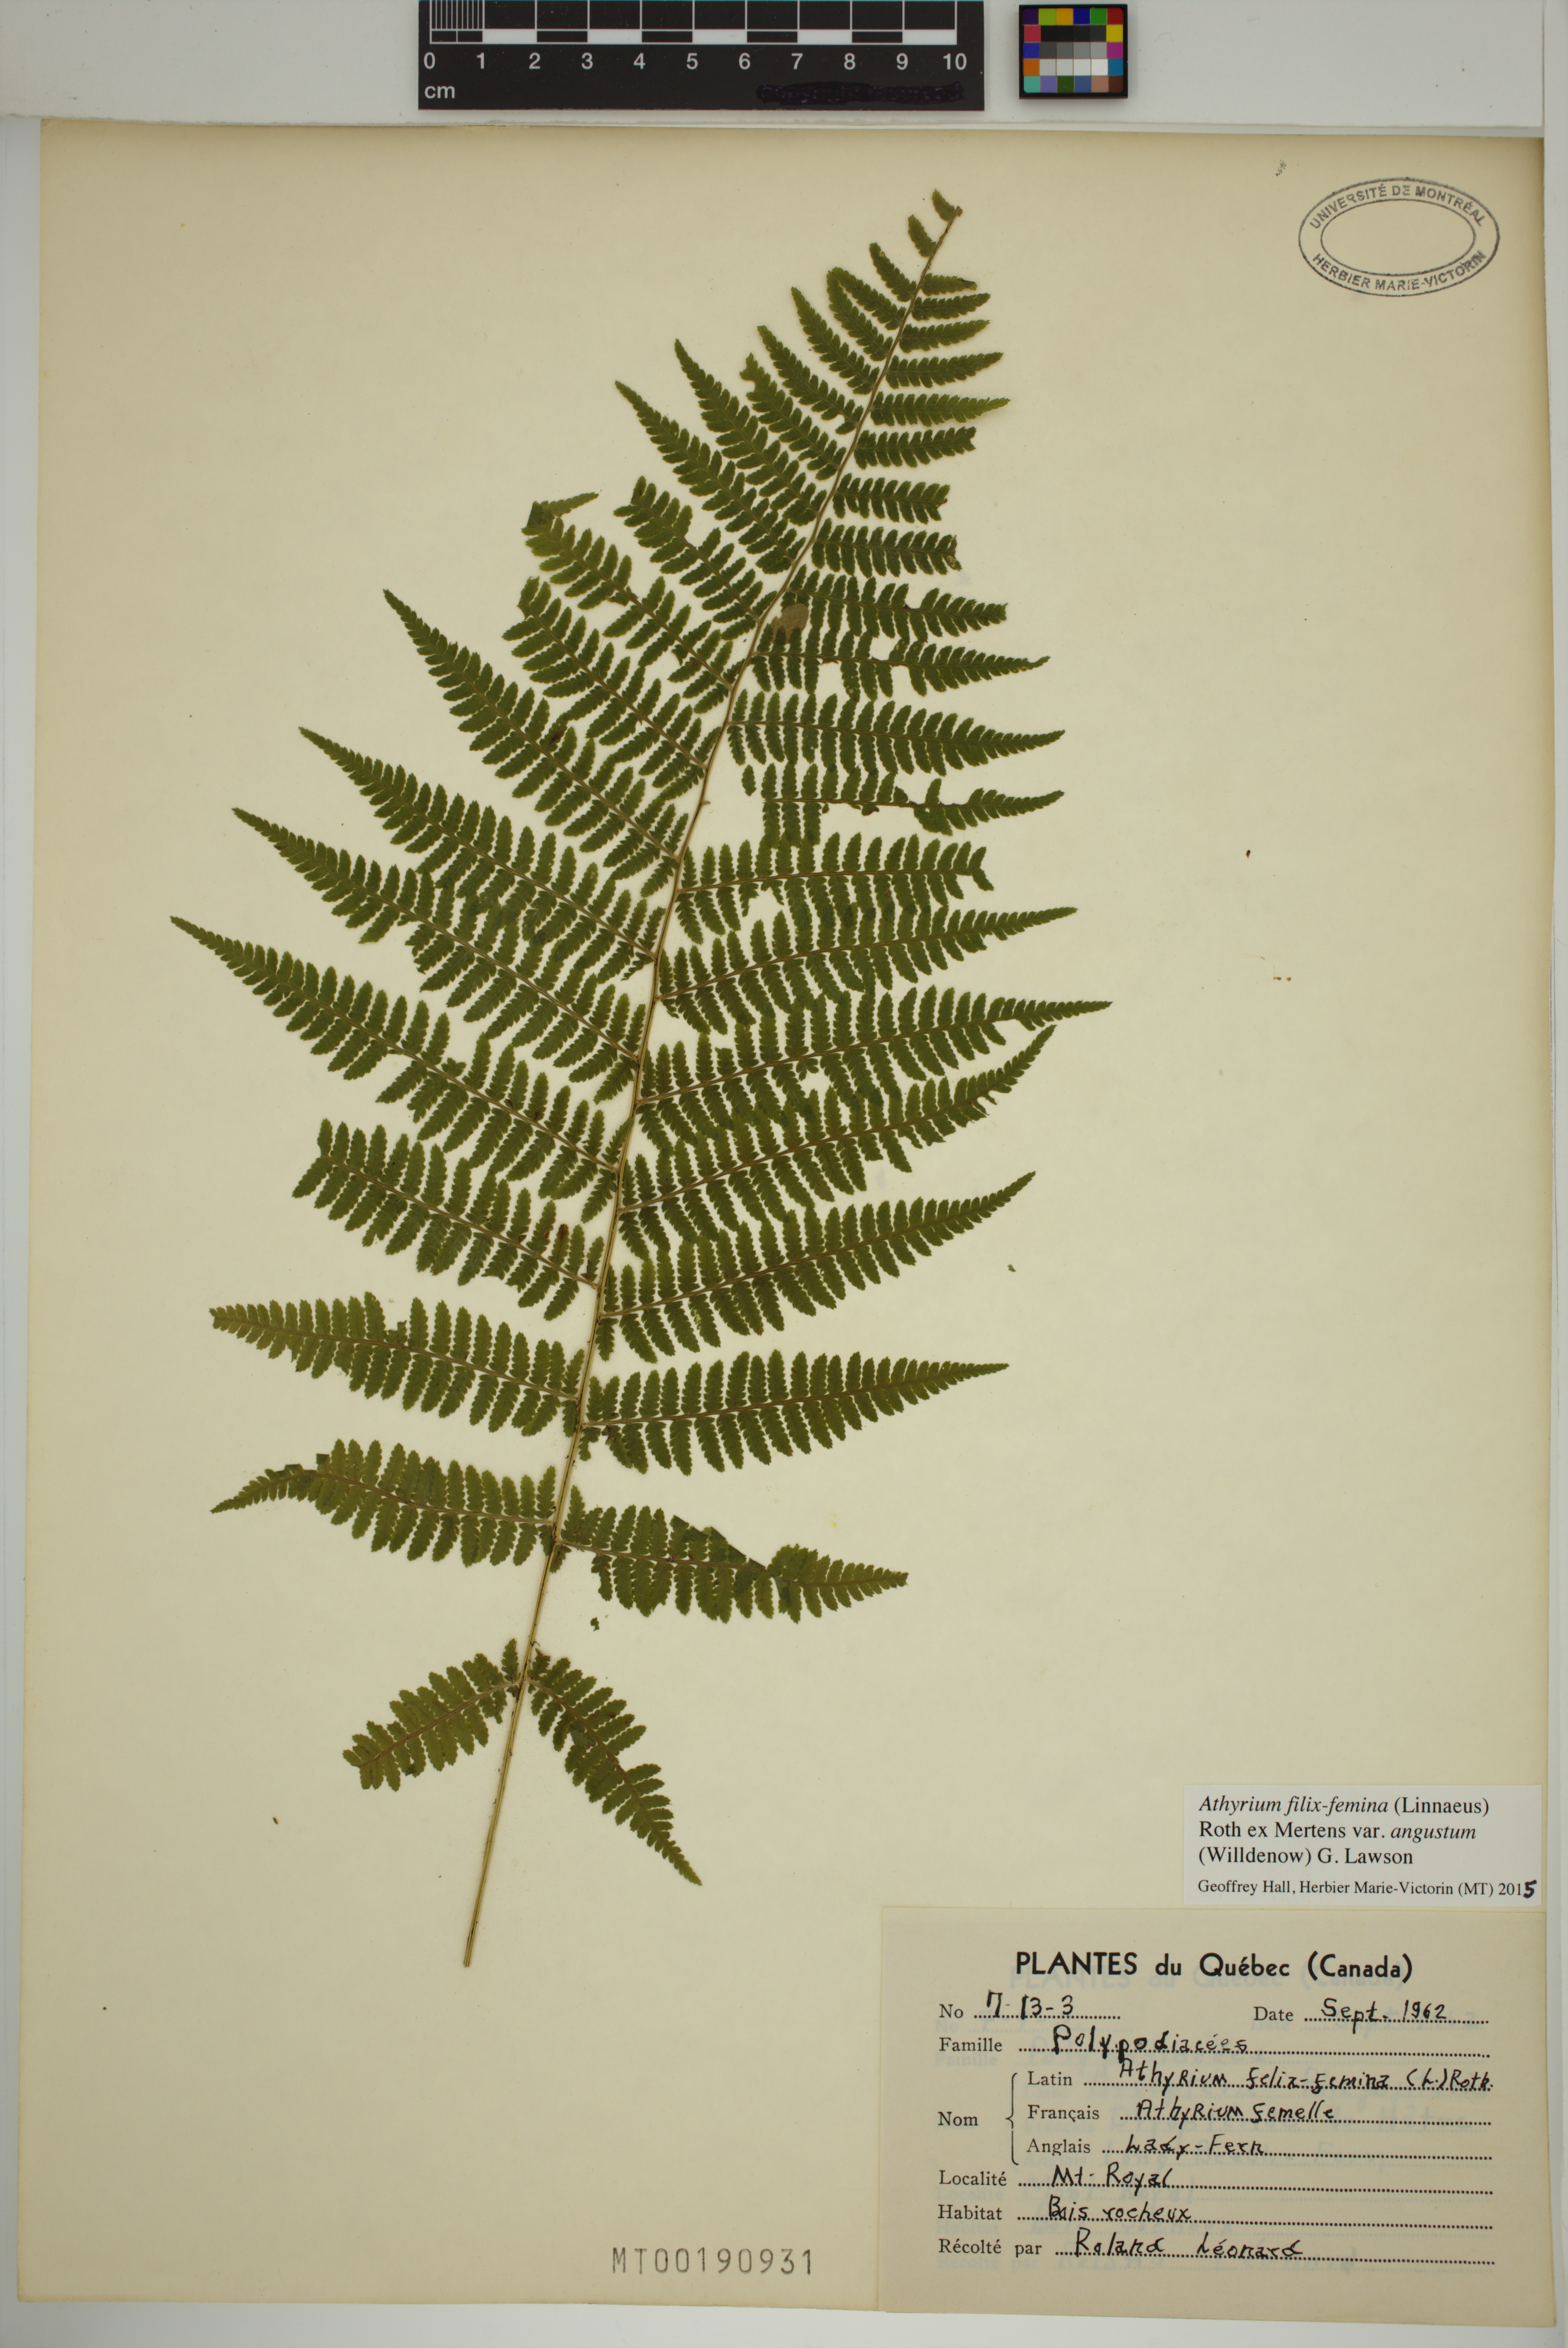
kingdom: Plantae
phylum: Tracheophyta
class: Polypodiopsida
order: Polypodiales
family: Athyriaceae
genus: Athyrium
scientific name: Athyrium angustum
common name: Northern lady fern
